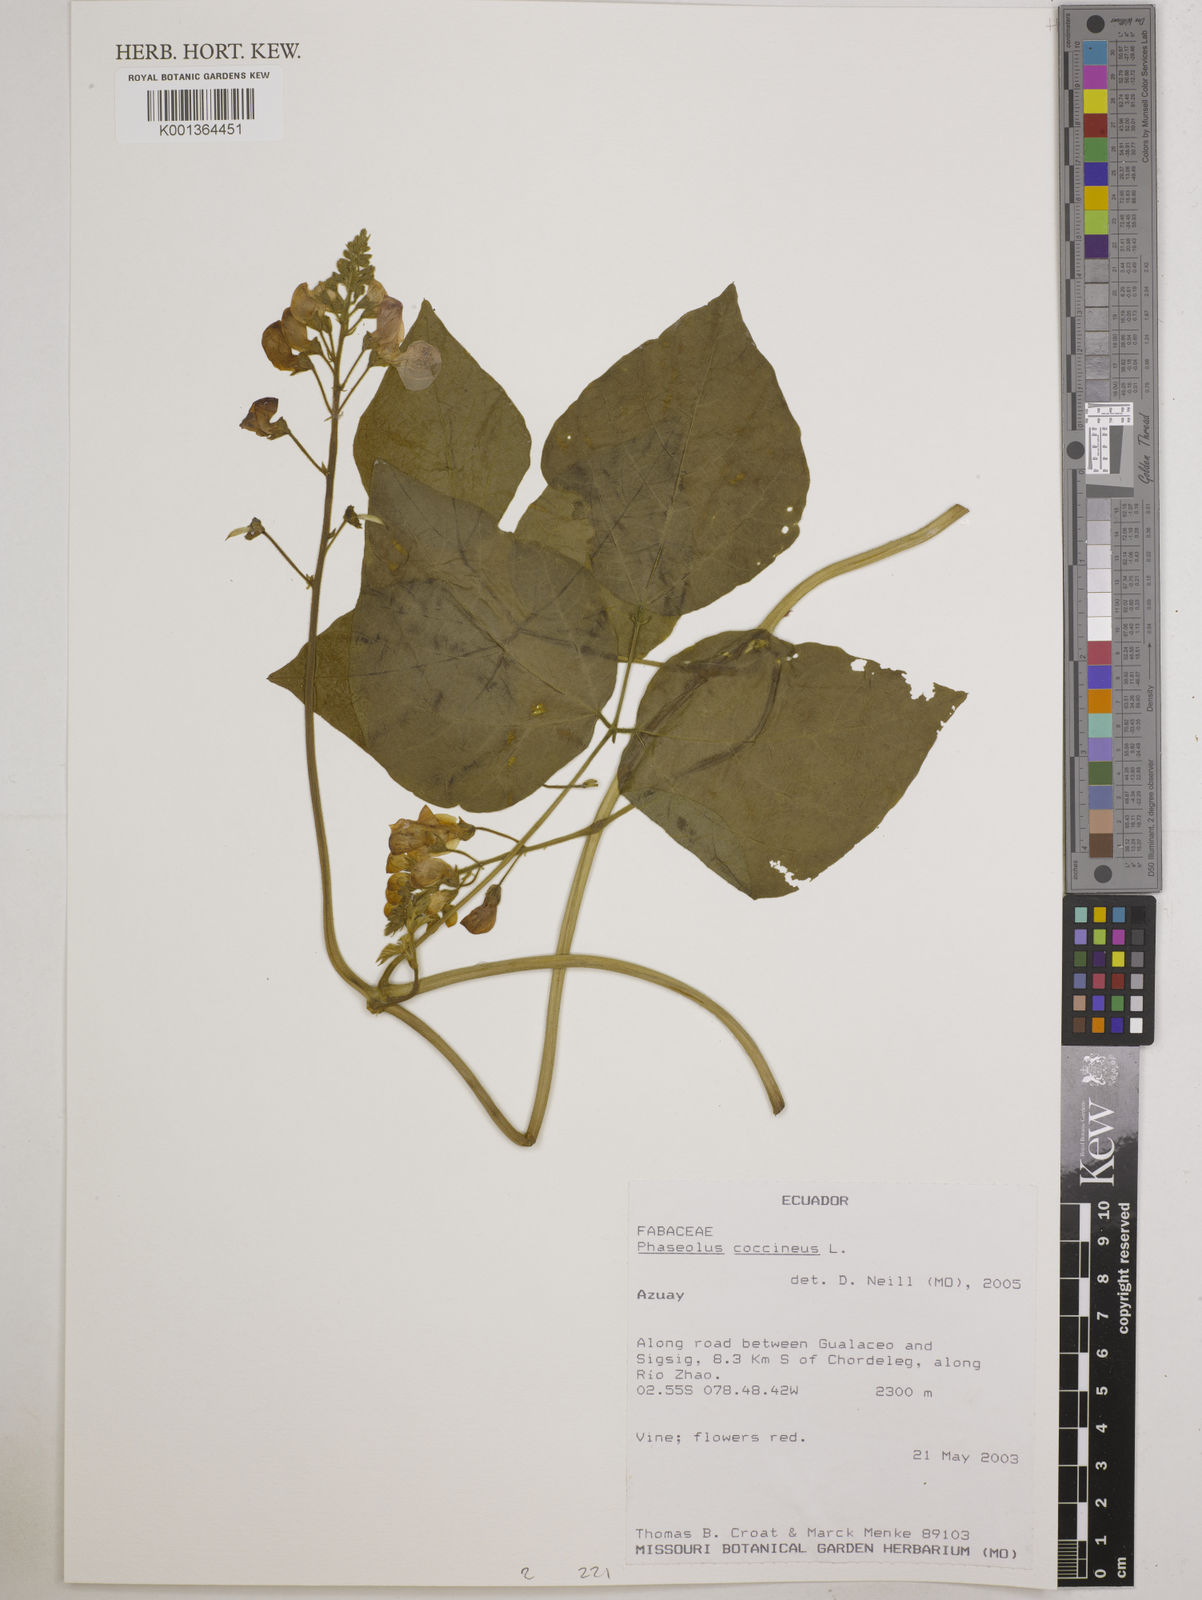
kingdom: Plantae
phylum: Tracheophyta
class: Magnoliopsida
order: Fabales
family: Fabaceae
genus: Phaseolus
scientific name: Phaseolus coccineus
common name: Runner bean
